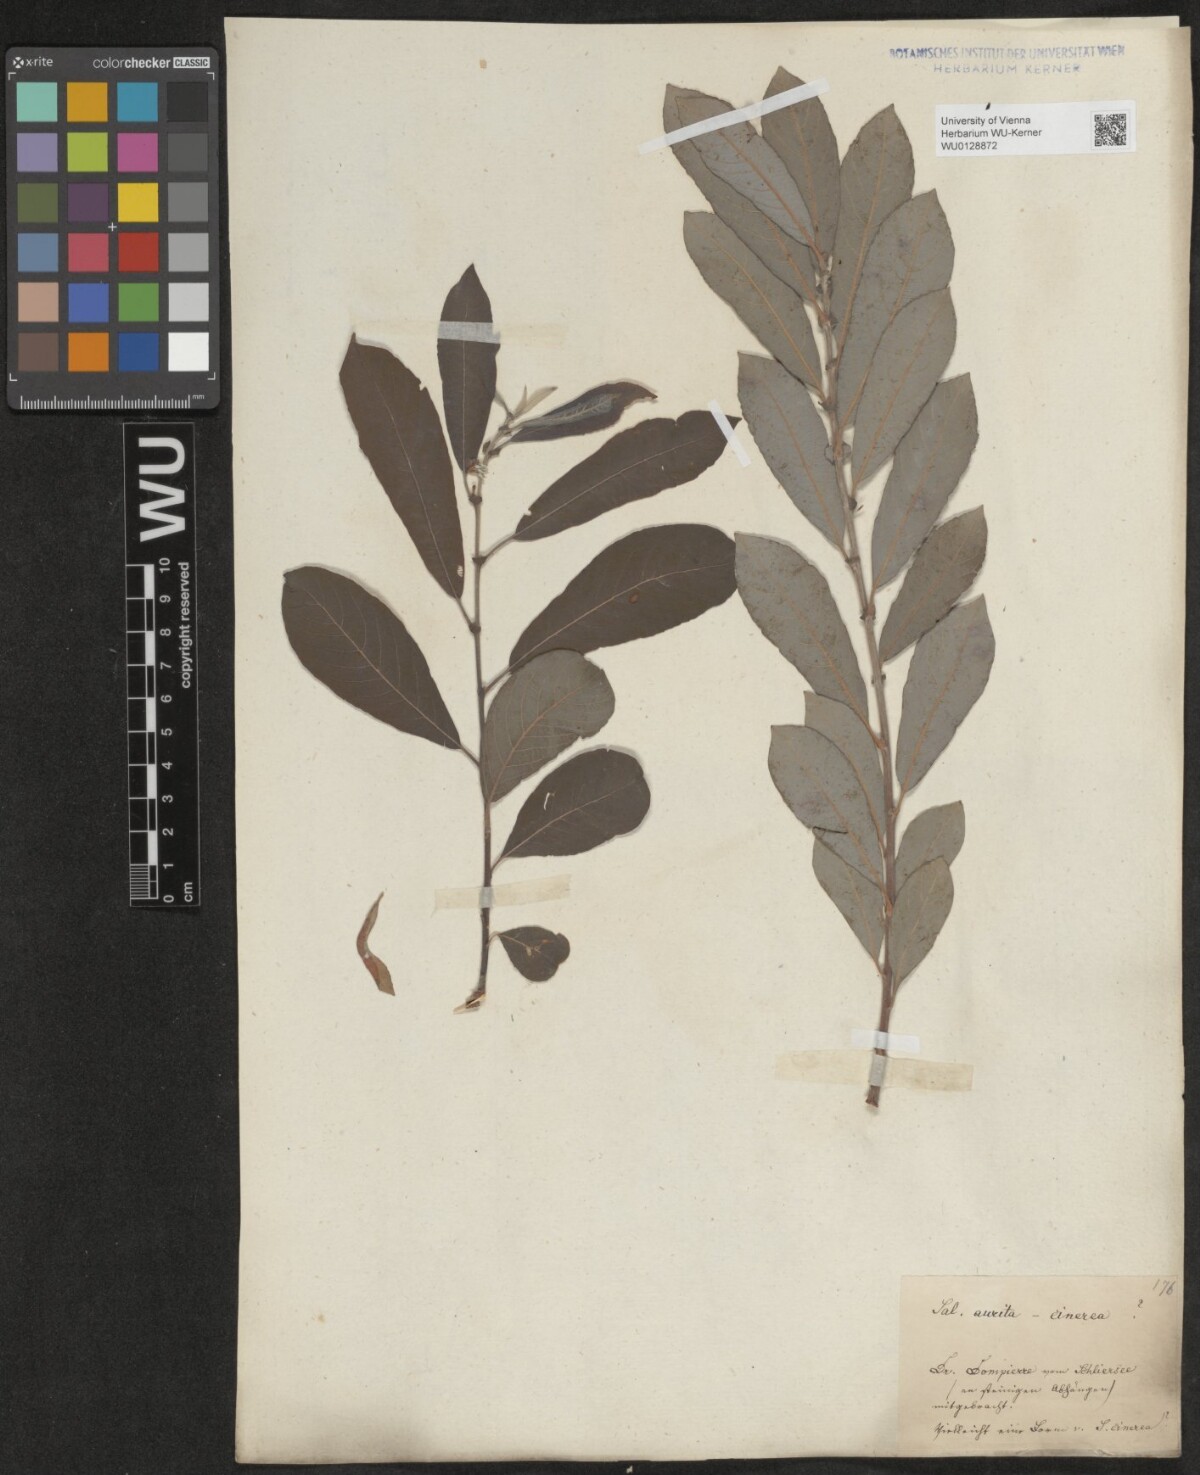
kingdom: Plantae
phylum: Tracheophyta
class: Magnoliopsida
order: Malpighiales
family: Salicaceae
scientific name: Salicaceae
